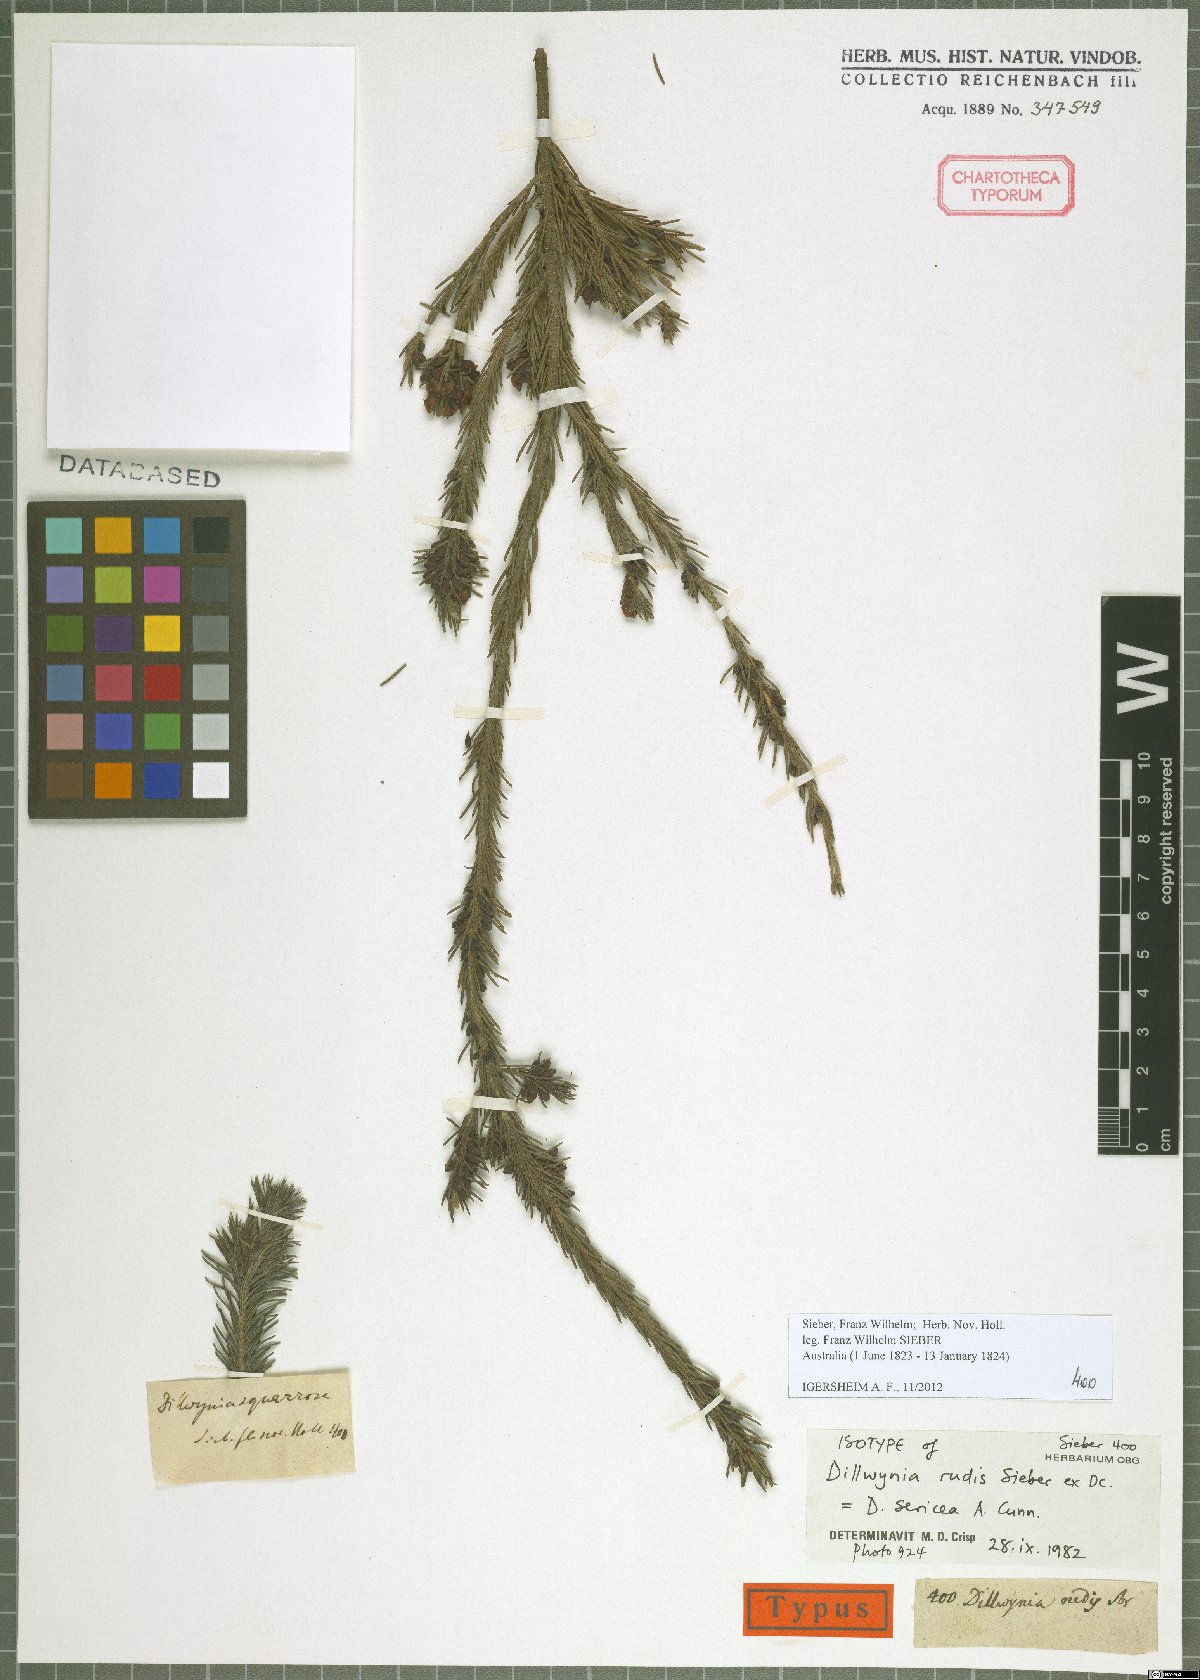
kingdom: Plantae
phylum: Tracheophyta
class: Magnoliopsida
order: Fabales
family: Fabaceae
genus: Dillwynia
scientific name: Dillwynia sericea
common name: Showy parrot-pea
